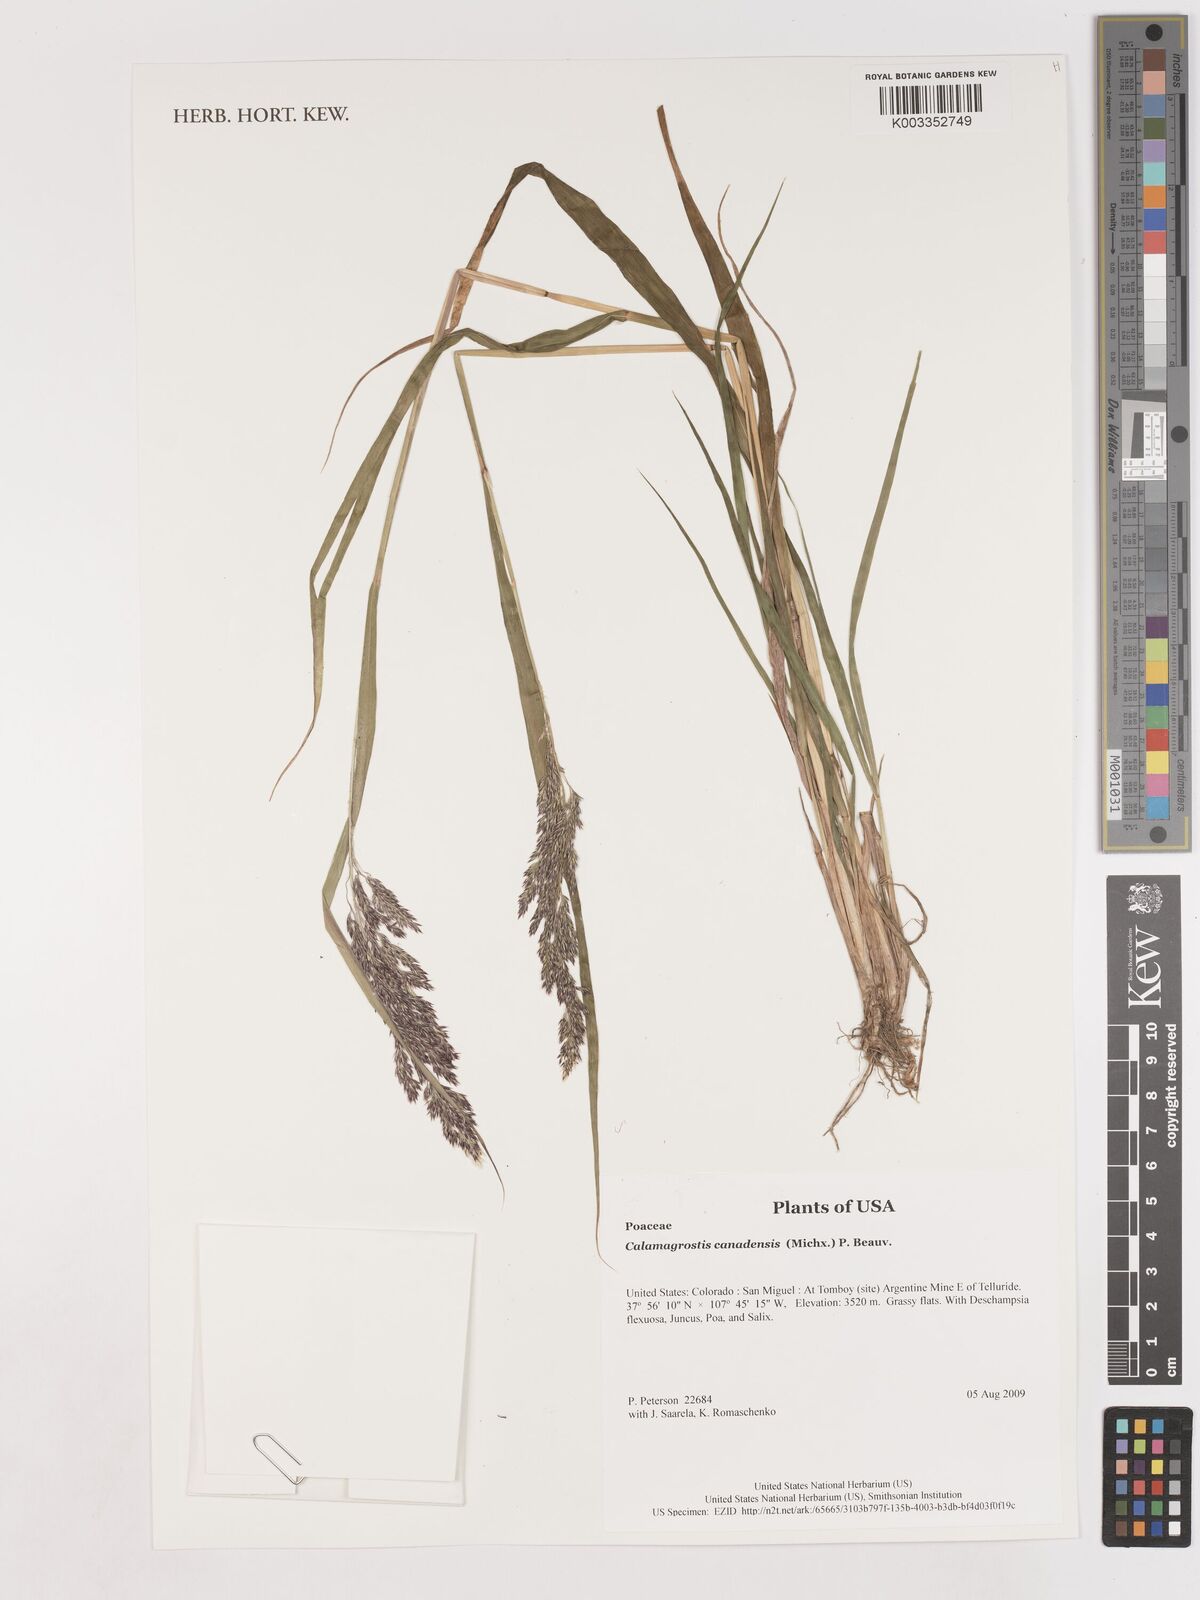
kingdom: Plantae
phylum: Tracheophyta
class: Liliopsida
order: Poales
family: Poaceae
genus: Calamagrostis
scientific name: Calamagrostis canadensis
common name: Canada bluejoint
